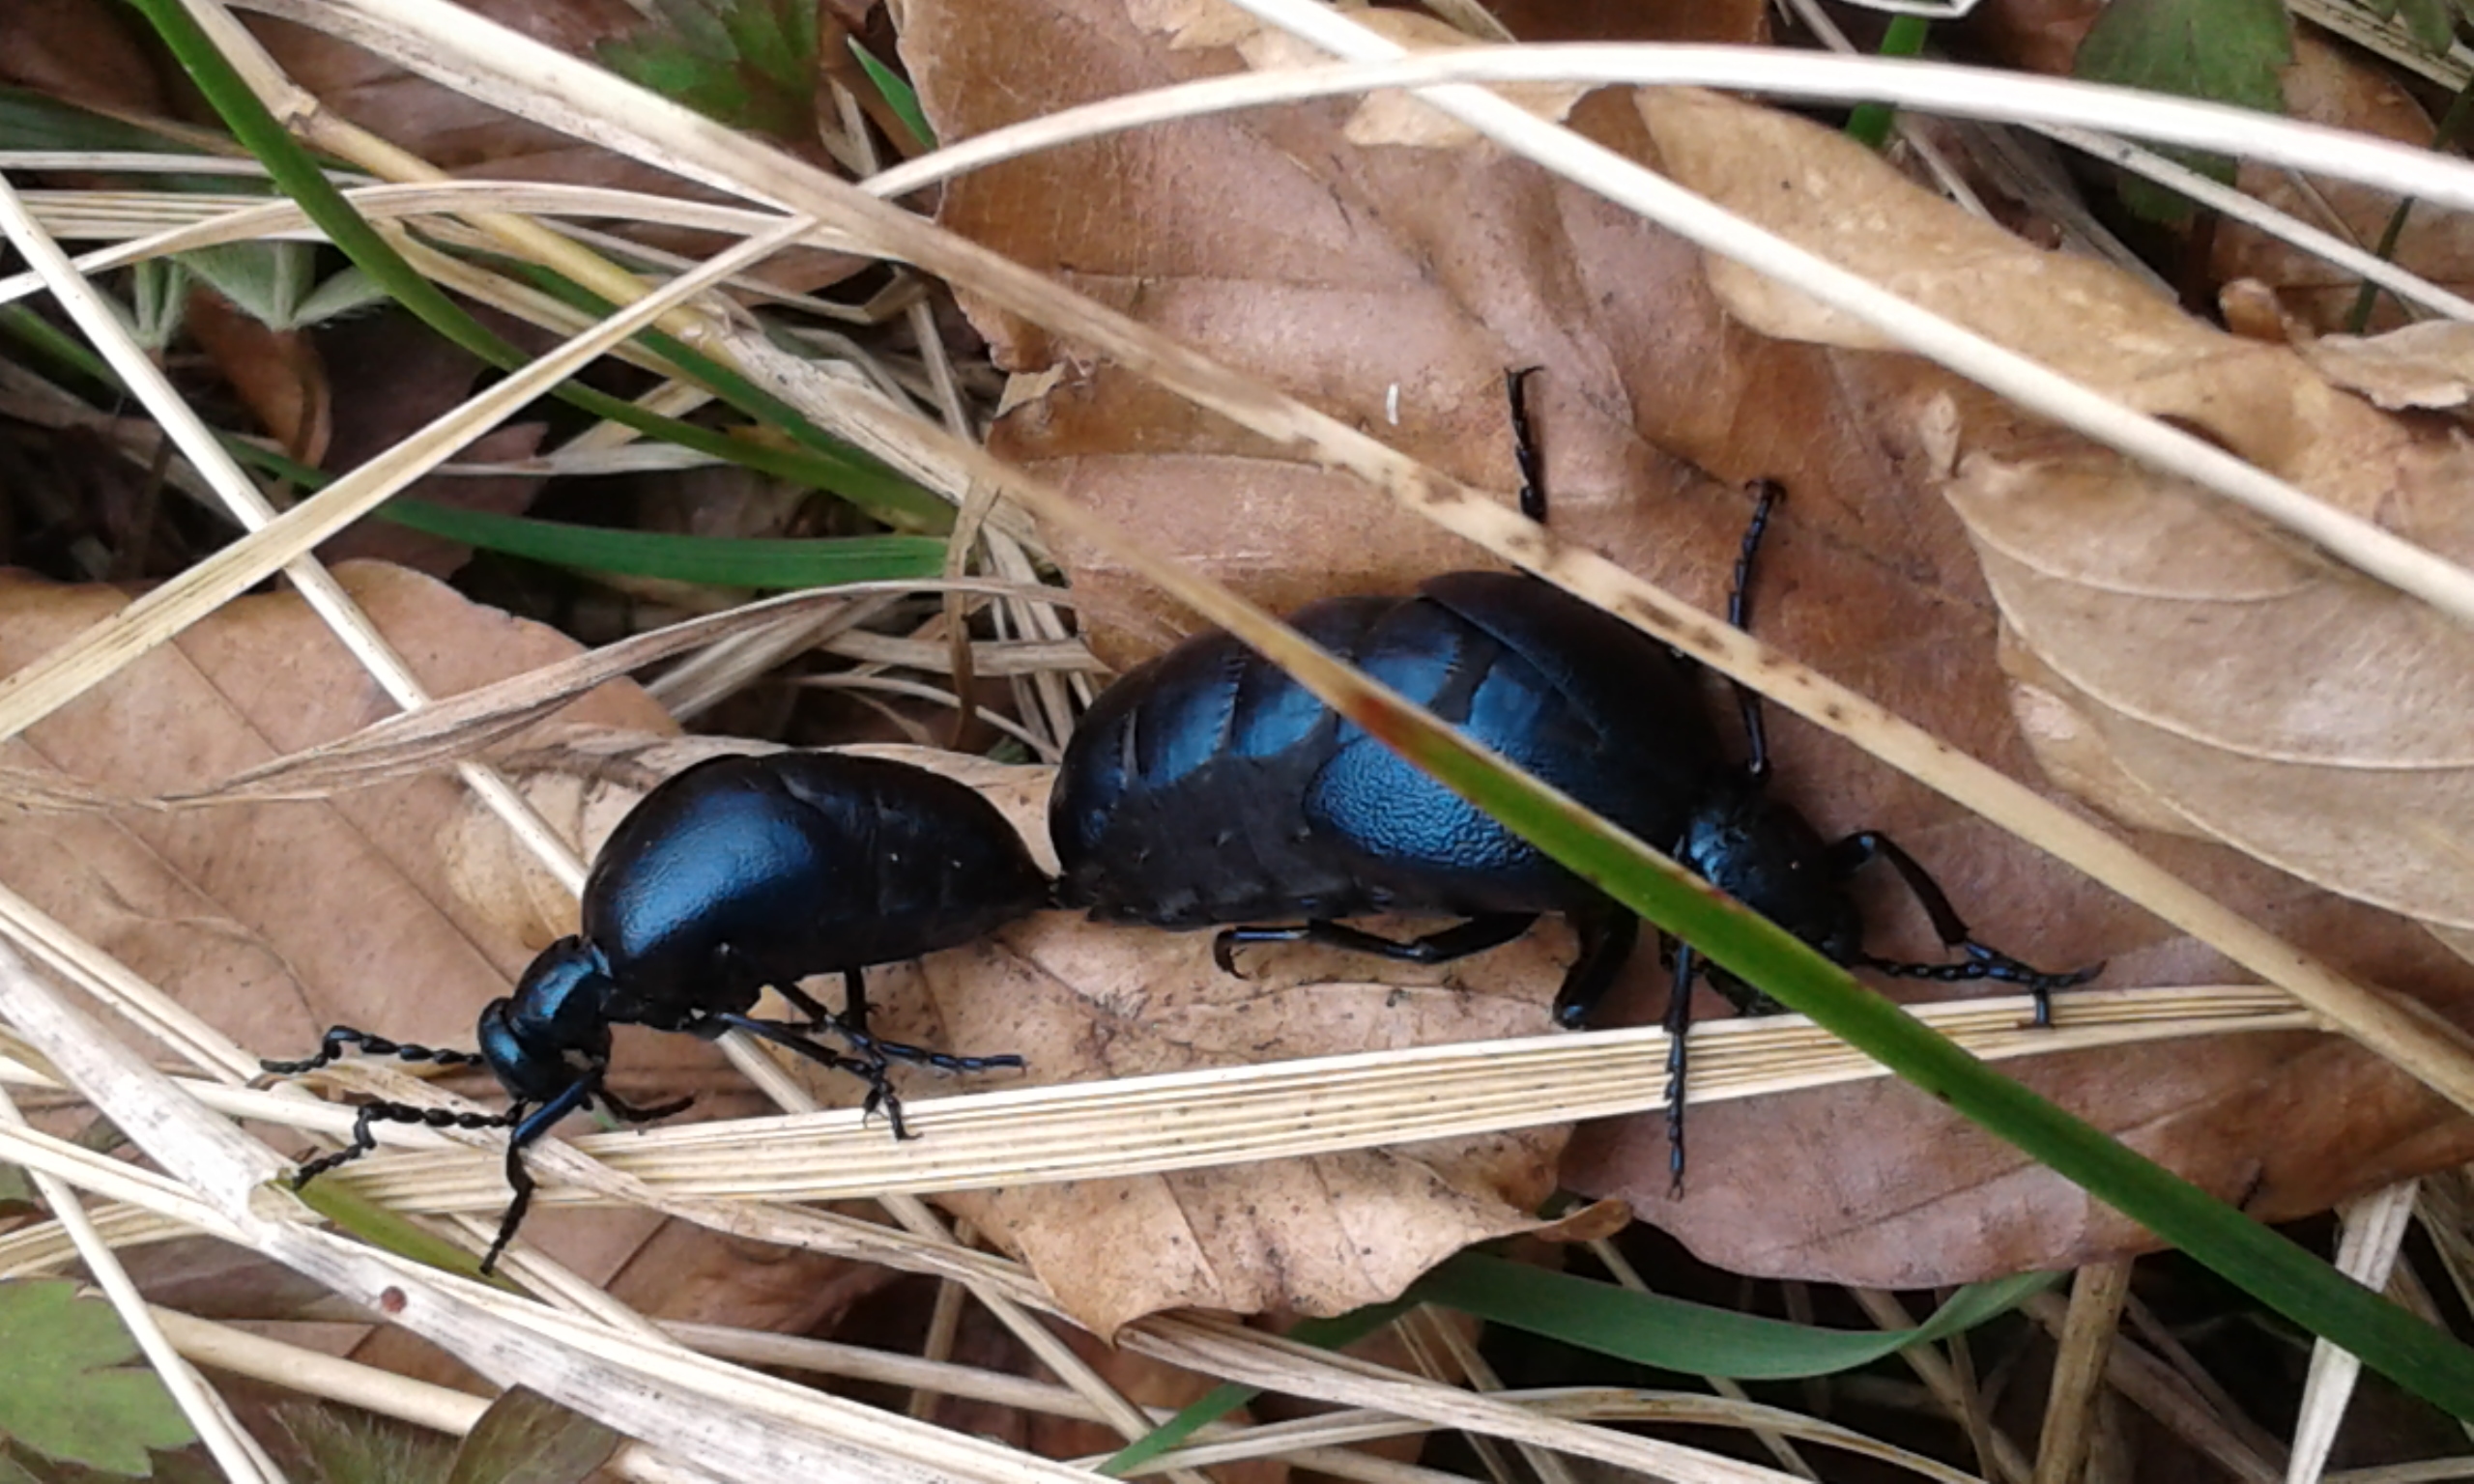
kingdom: Animalia
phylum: Arthropoda
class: Insecta
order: Coleoptera
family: Meloidae
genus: Meloe
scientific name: Meloe violaceus
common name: Blå oliebille
